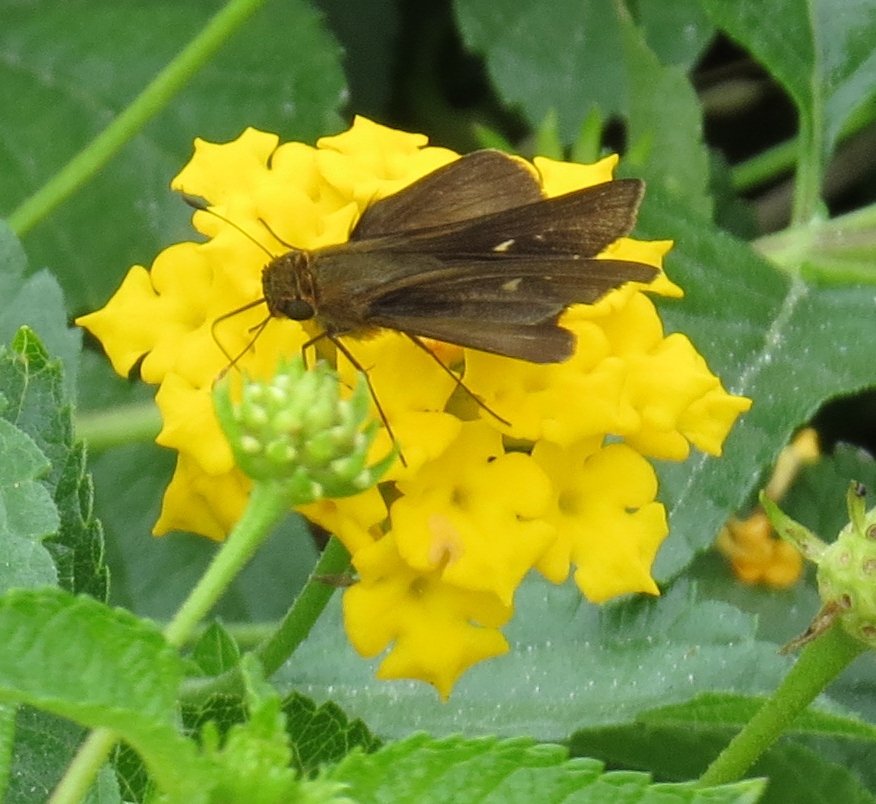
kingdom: Animalia
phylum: Arthropoda
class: Insecta
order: Lepidoptera
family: Hesperiidae
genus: Panoquina
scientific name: Panoquina ocola
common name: Ocola Skipper
